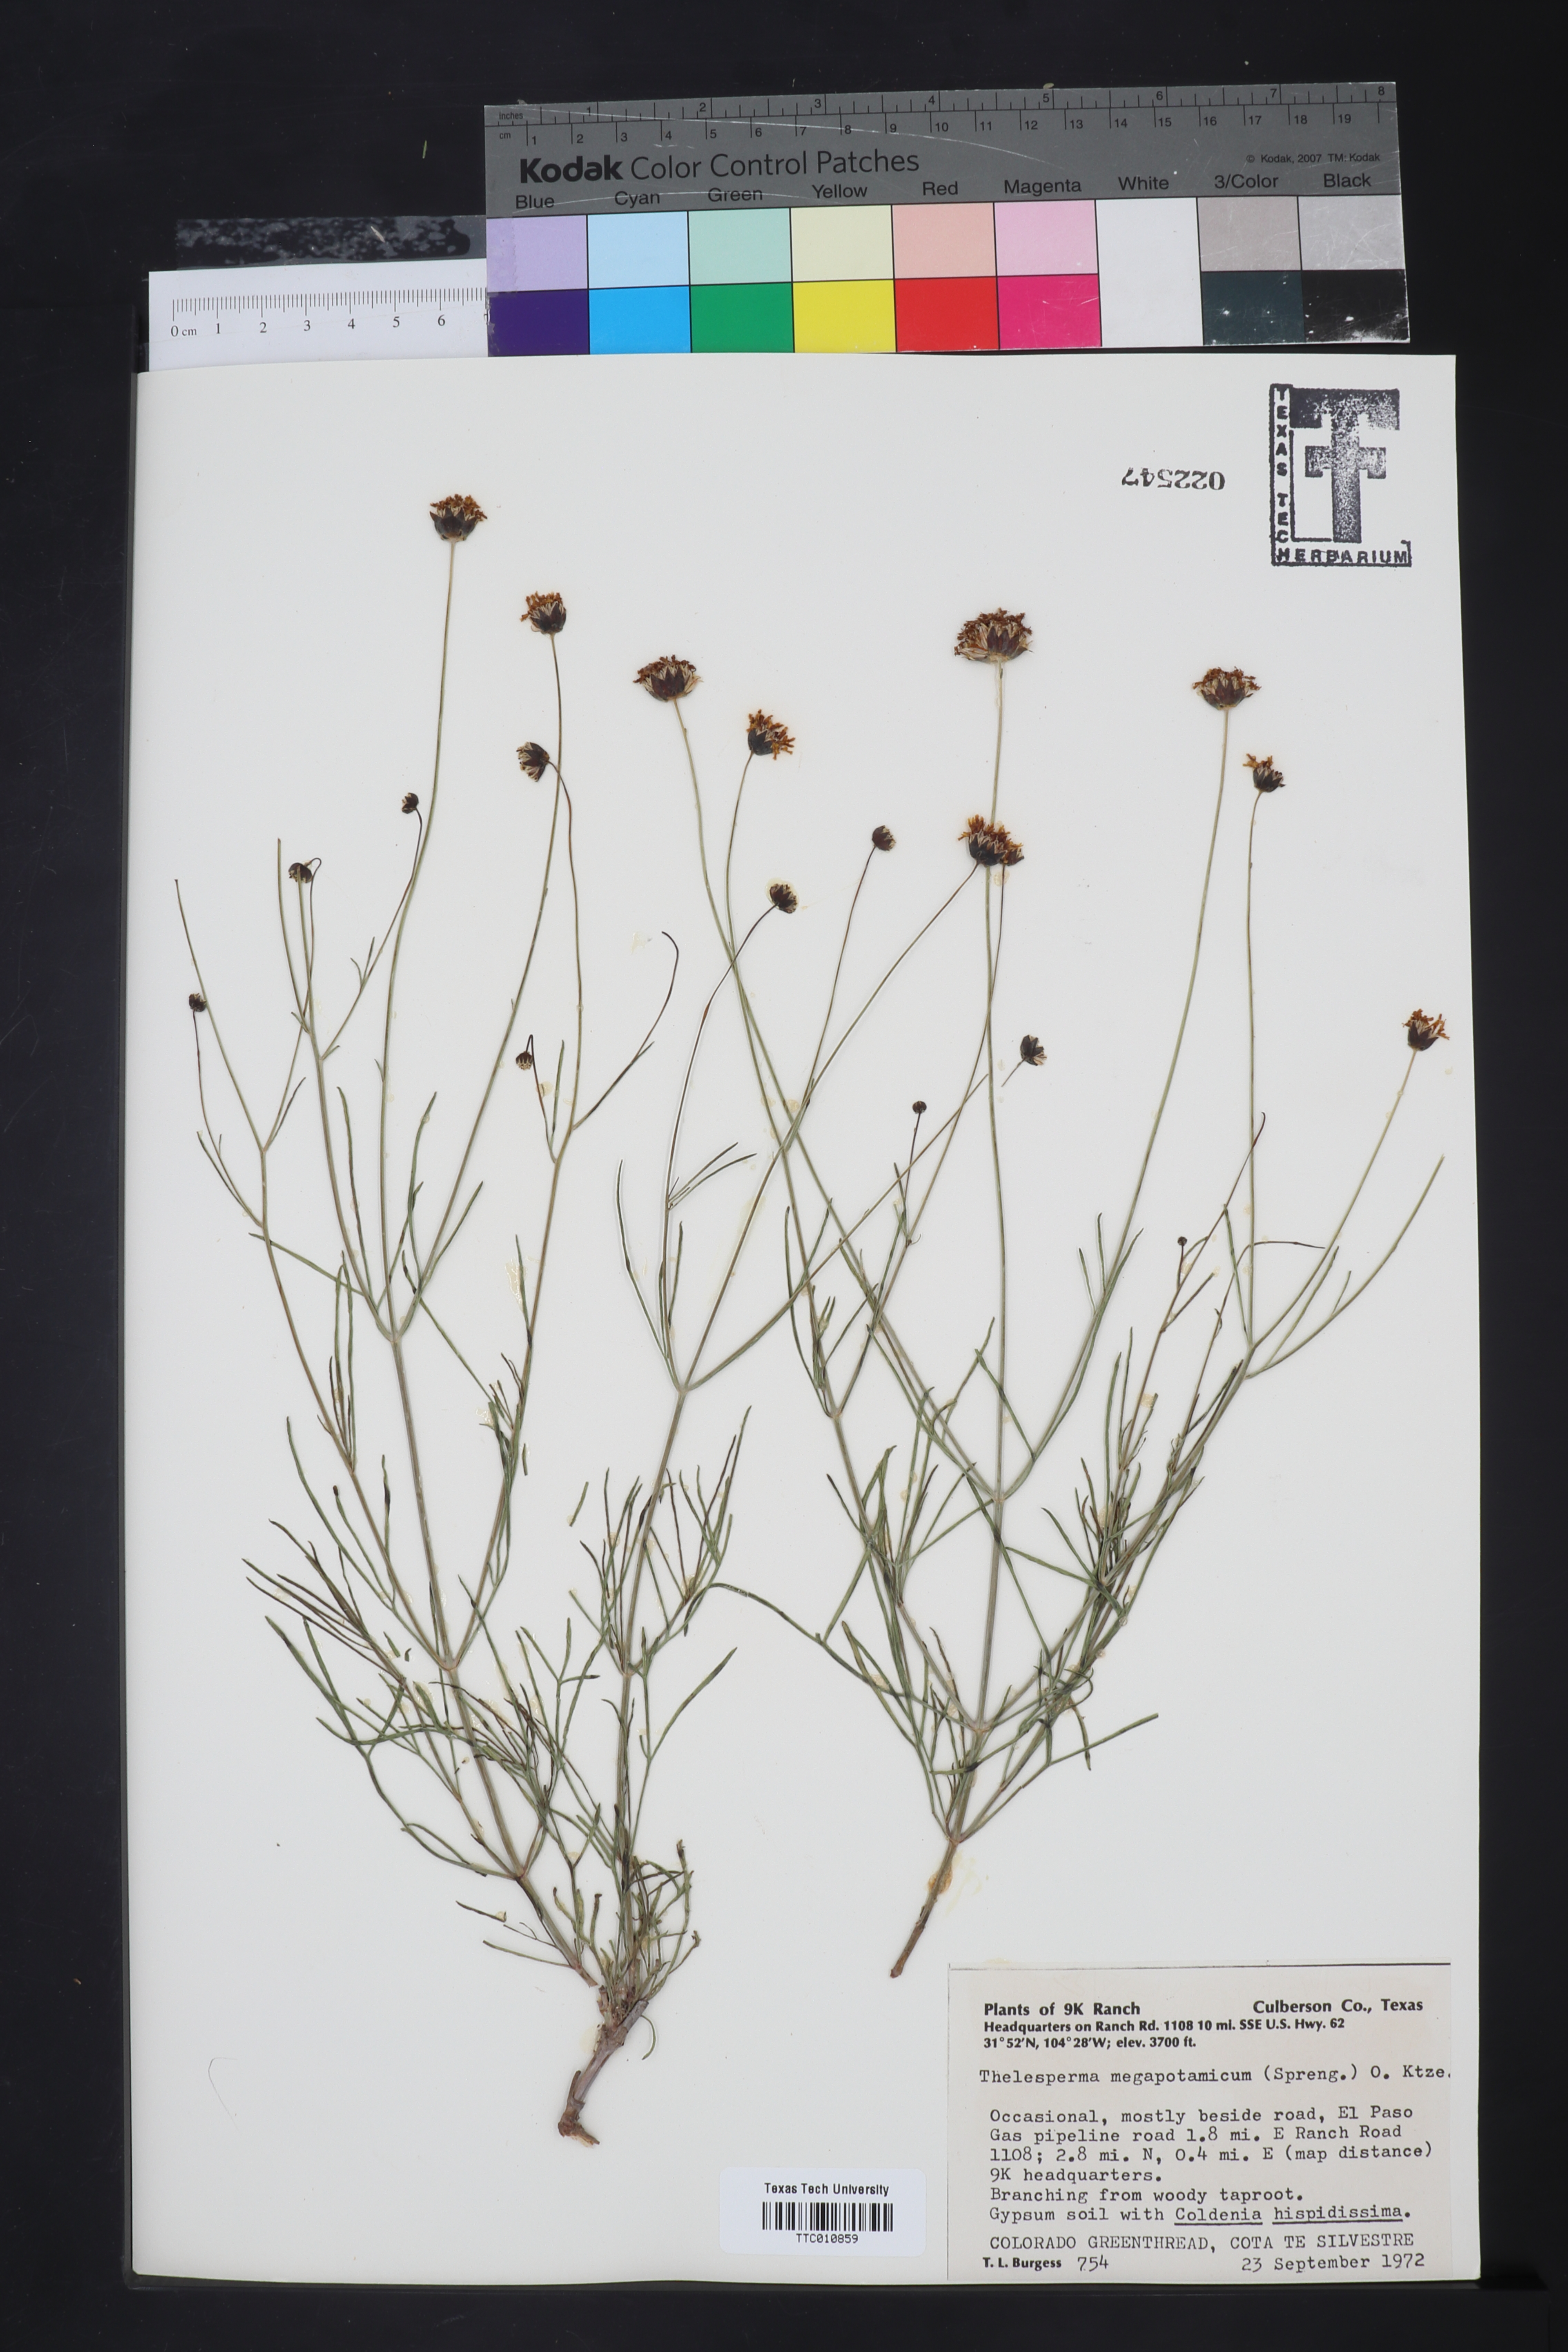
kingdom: Plantae
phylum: Tracheophyta
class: Magnoliopsida
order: Asterales
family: Asteraceae
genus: Thelesperma
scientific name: Thelesperma megapotamicum
